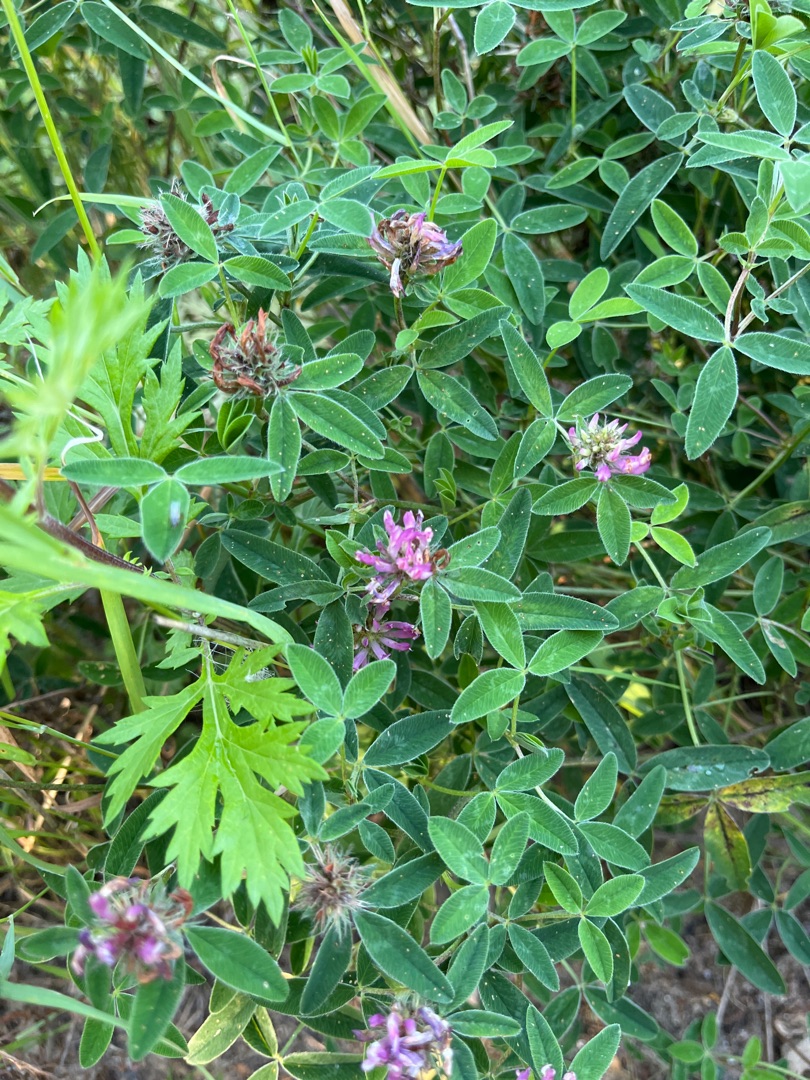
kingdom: Plantae
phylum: Tracheophyta
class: Magnoliopsida
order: Fabales
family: Fabaceae
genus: Trifolium
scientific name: Trifolium medium
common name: Bugtet kløver
